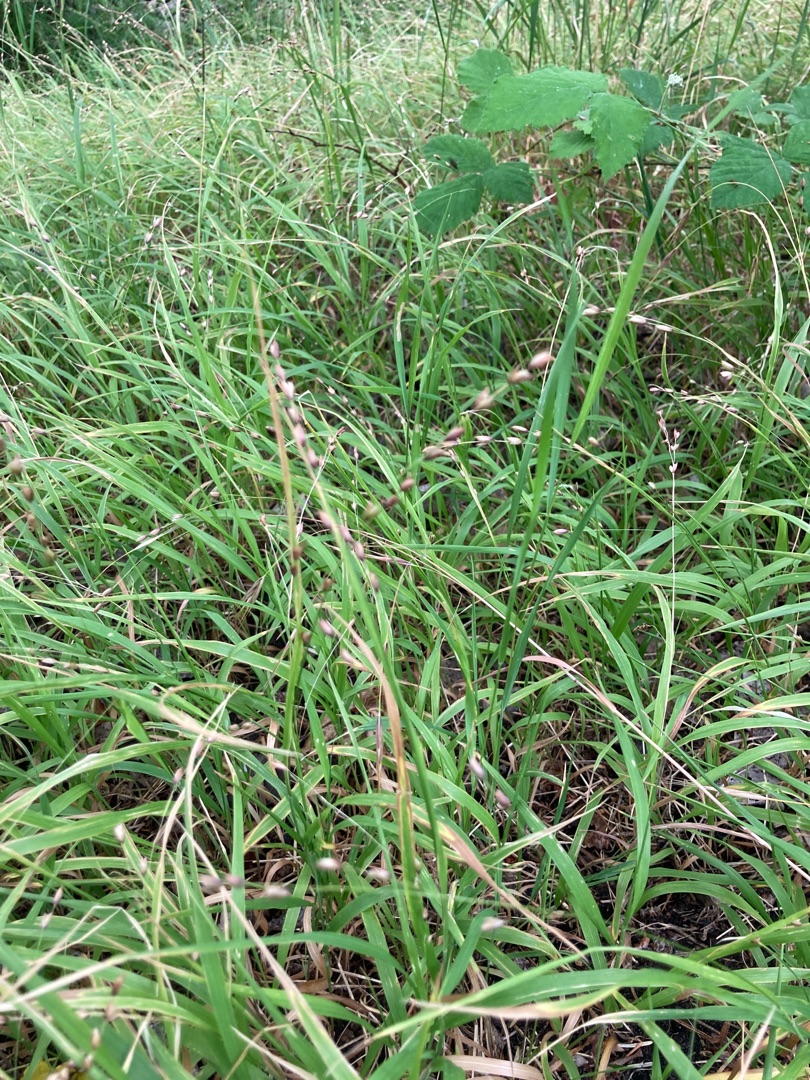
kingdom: Plantae
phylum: Tracheophyta
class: Liliopsida
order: Poales
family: Poaceae
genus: Melica
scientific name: Melica uniflora
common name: Enblomstret flitteraks
